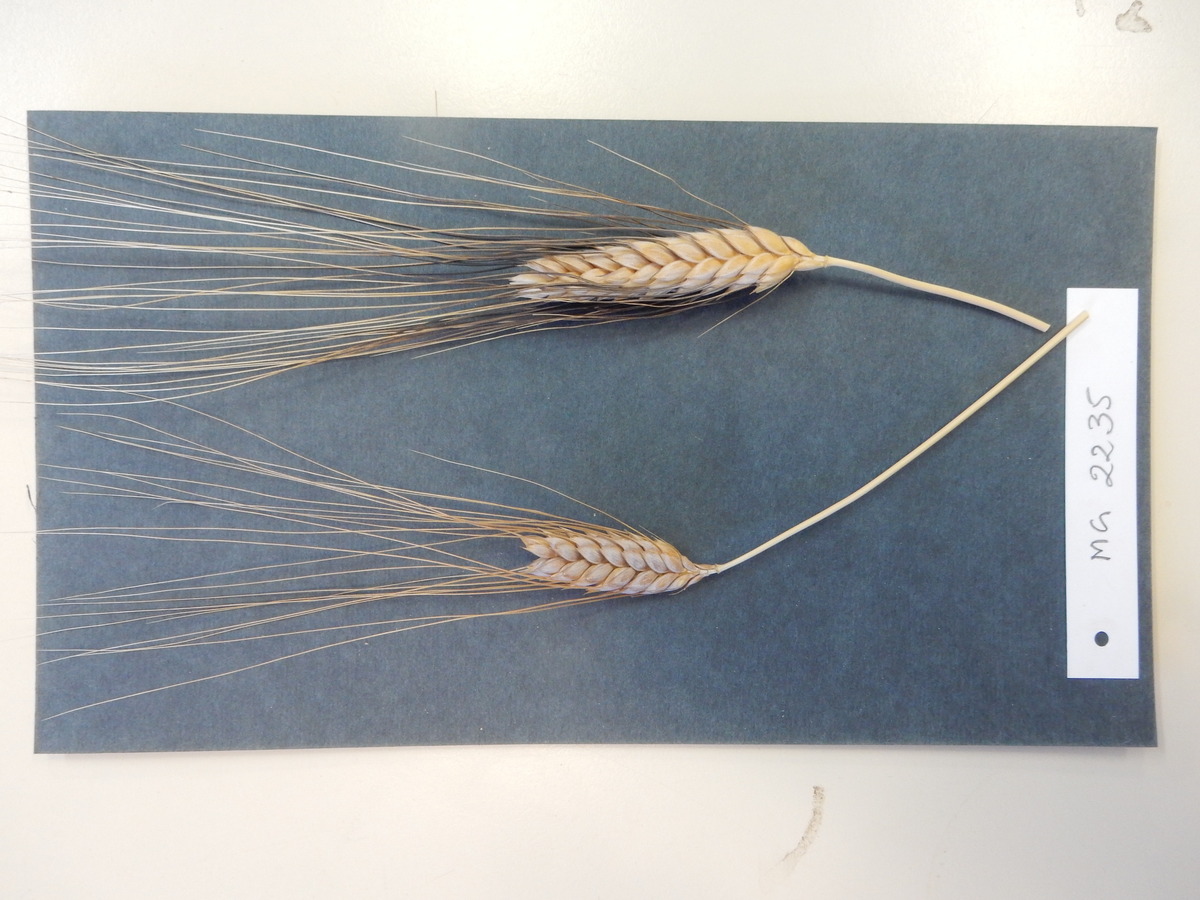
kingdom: Plantae
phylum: Tracheophyta
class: Liliopsida
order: Poales
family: Poaceae
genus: Triticum
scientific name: Triticum turgidum
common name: Wheat
